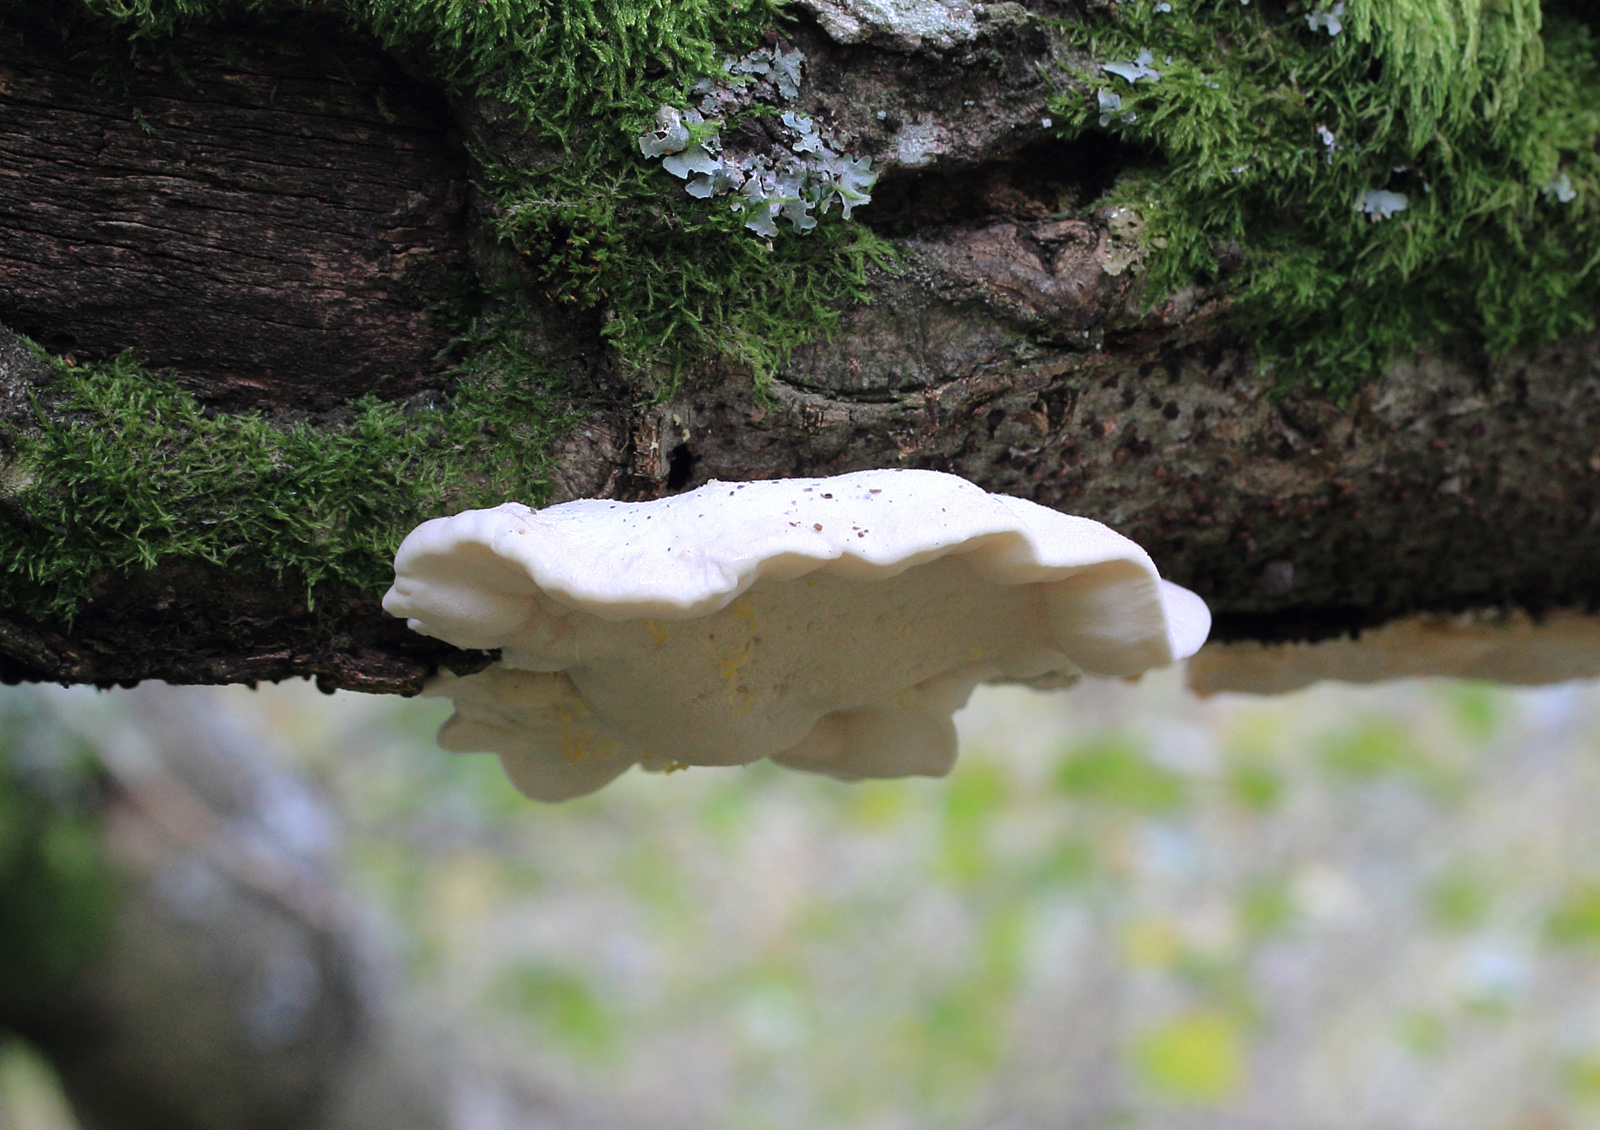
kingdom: Fungi
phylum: Basidiomycota
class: Agaricomycetes
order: Polyporales
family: Incrustoporiaceae
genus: Tyromyces
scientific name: Tyromyces lacteus
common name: mælkehvid kødporesvamp
